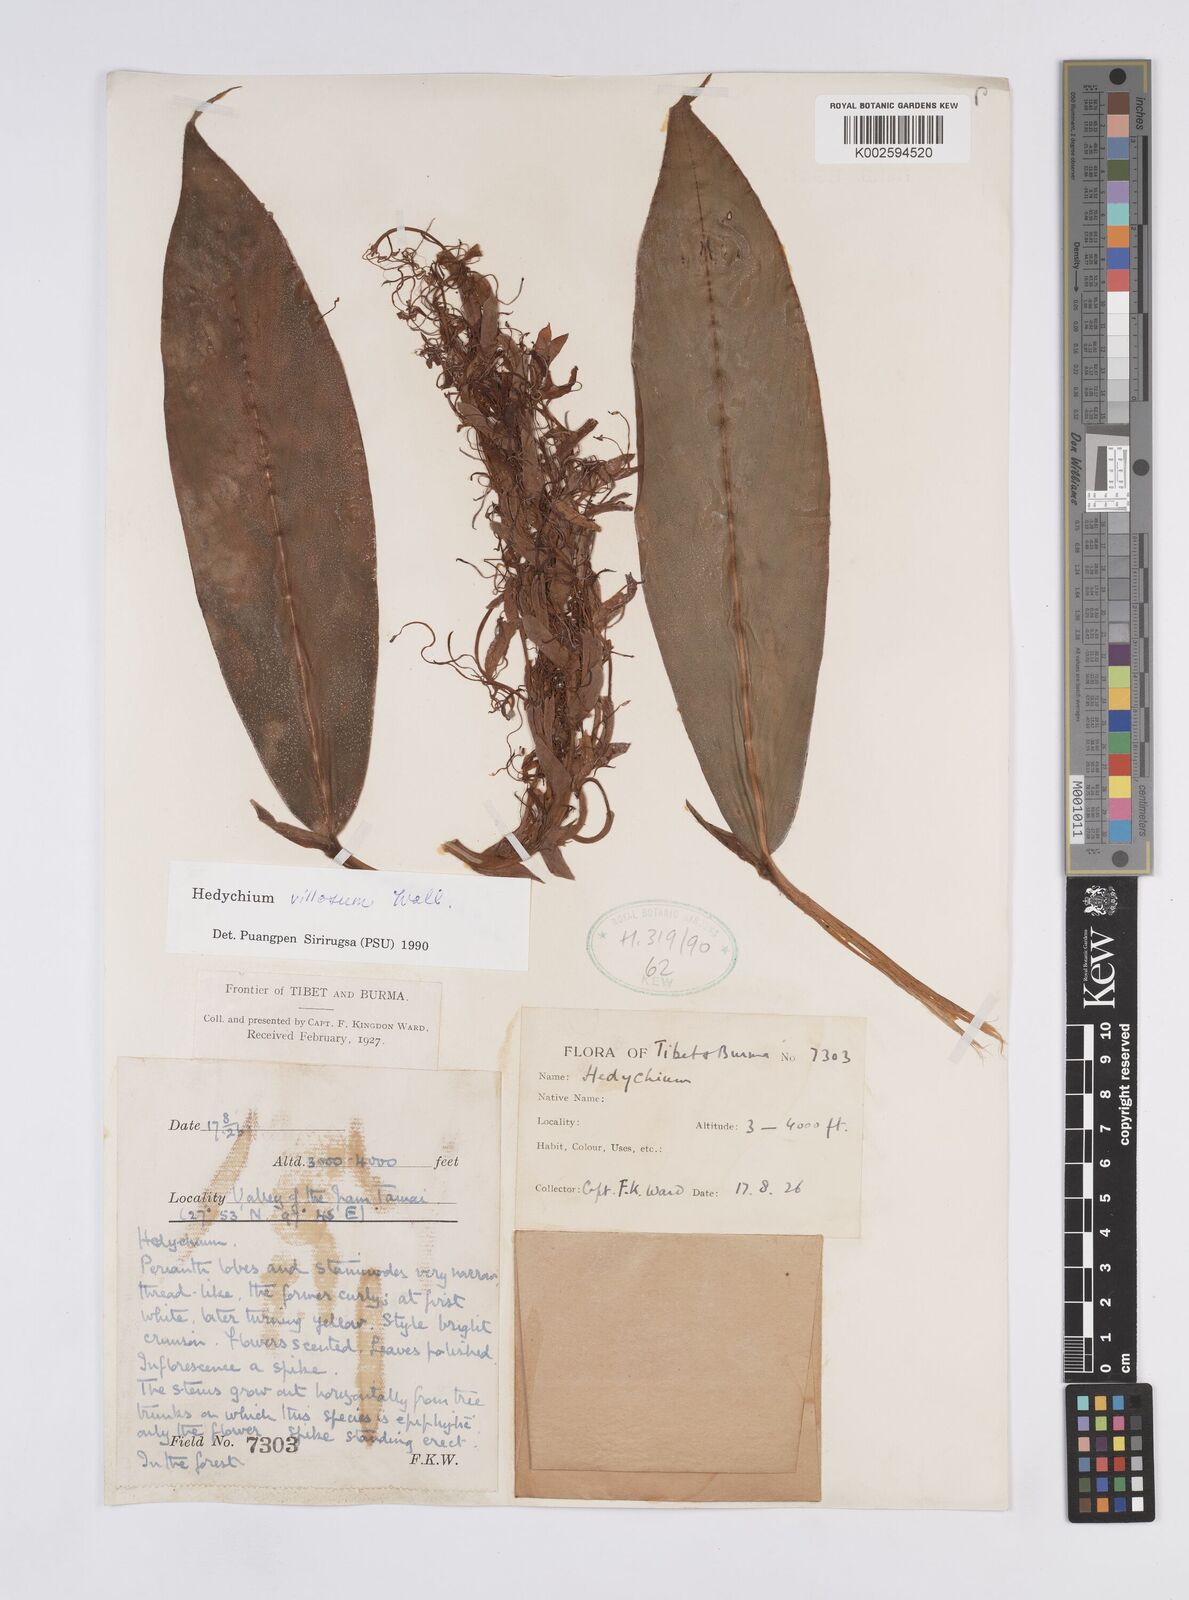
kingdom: Plantae
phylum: Tracheophyta
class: Liliopsida
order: Zingiberales
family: Zingiberaceae
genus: Hedychium
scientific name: Hedychium villosum
